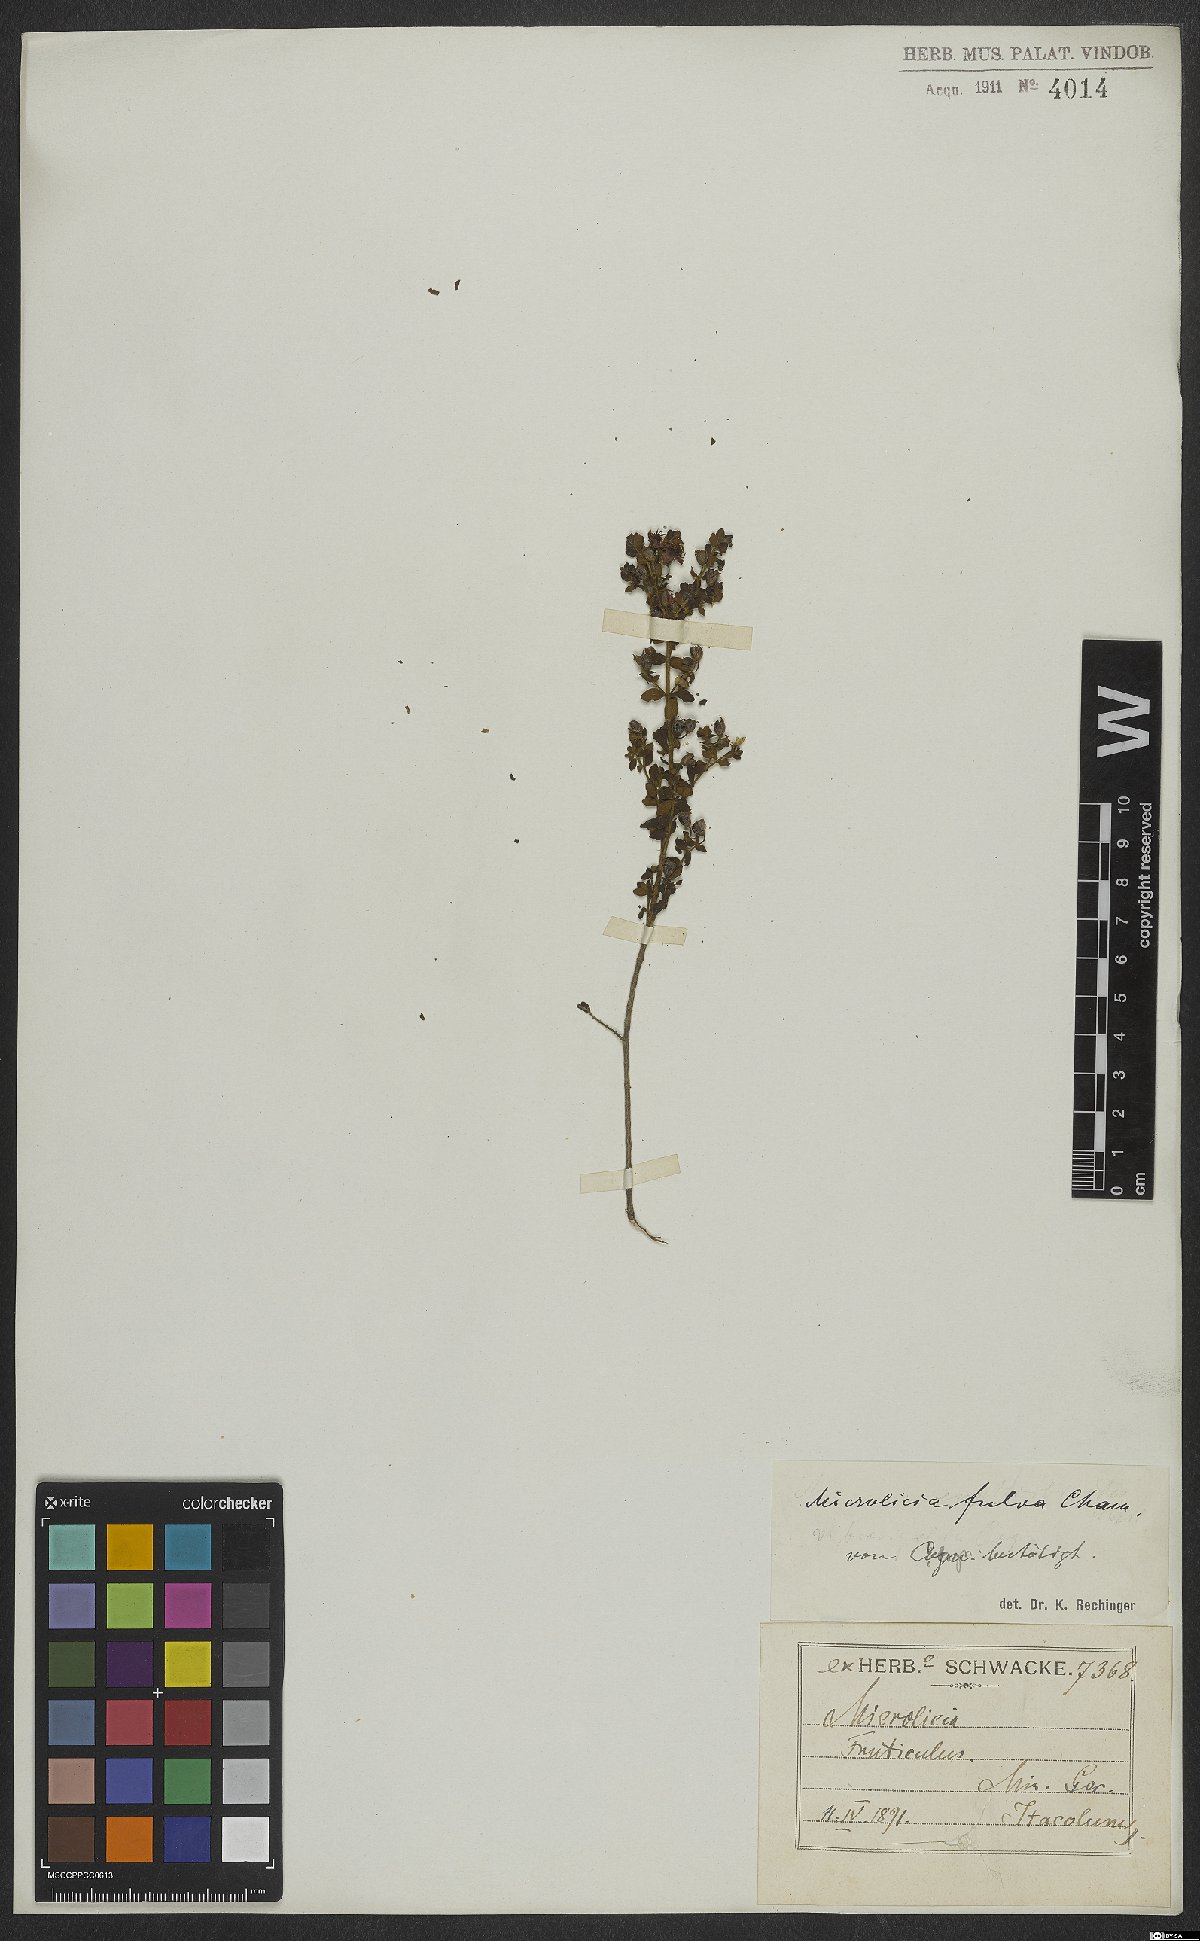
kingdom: Plantae
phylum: Tracheophyta
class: Magnoliopsida
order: Myrtales
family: Melastomataceae
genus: Microlicia
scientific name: Microlicia fulva
